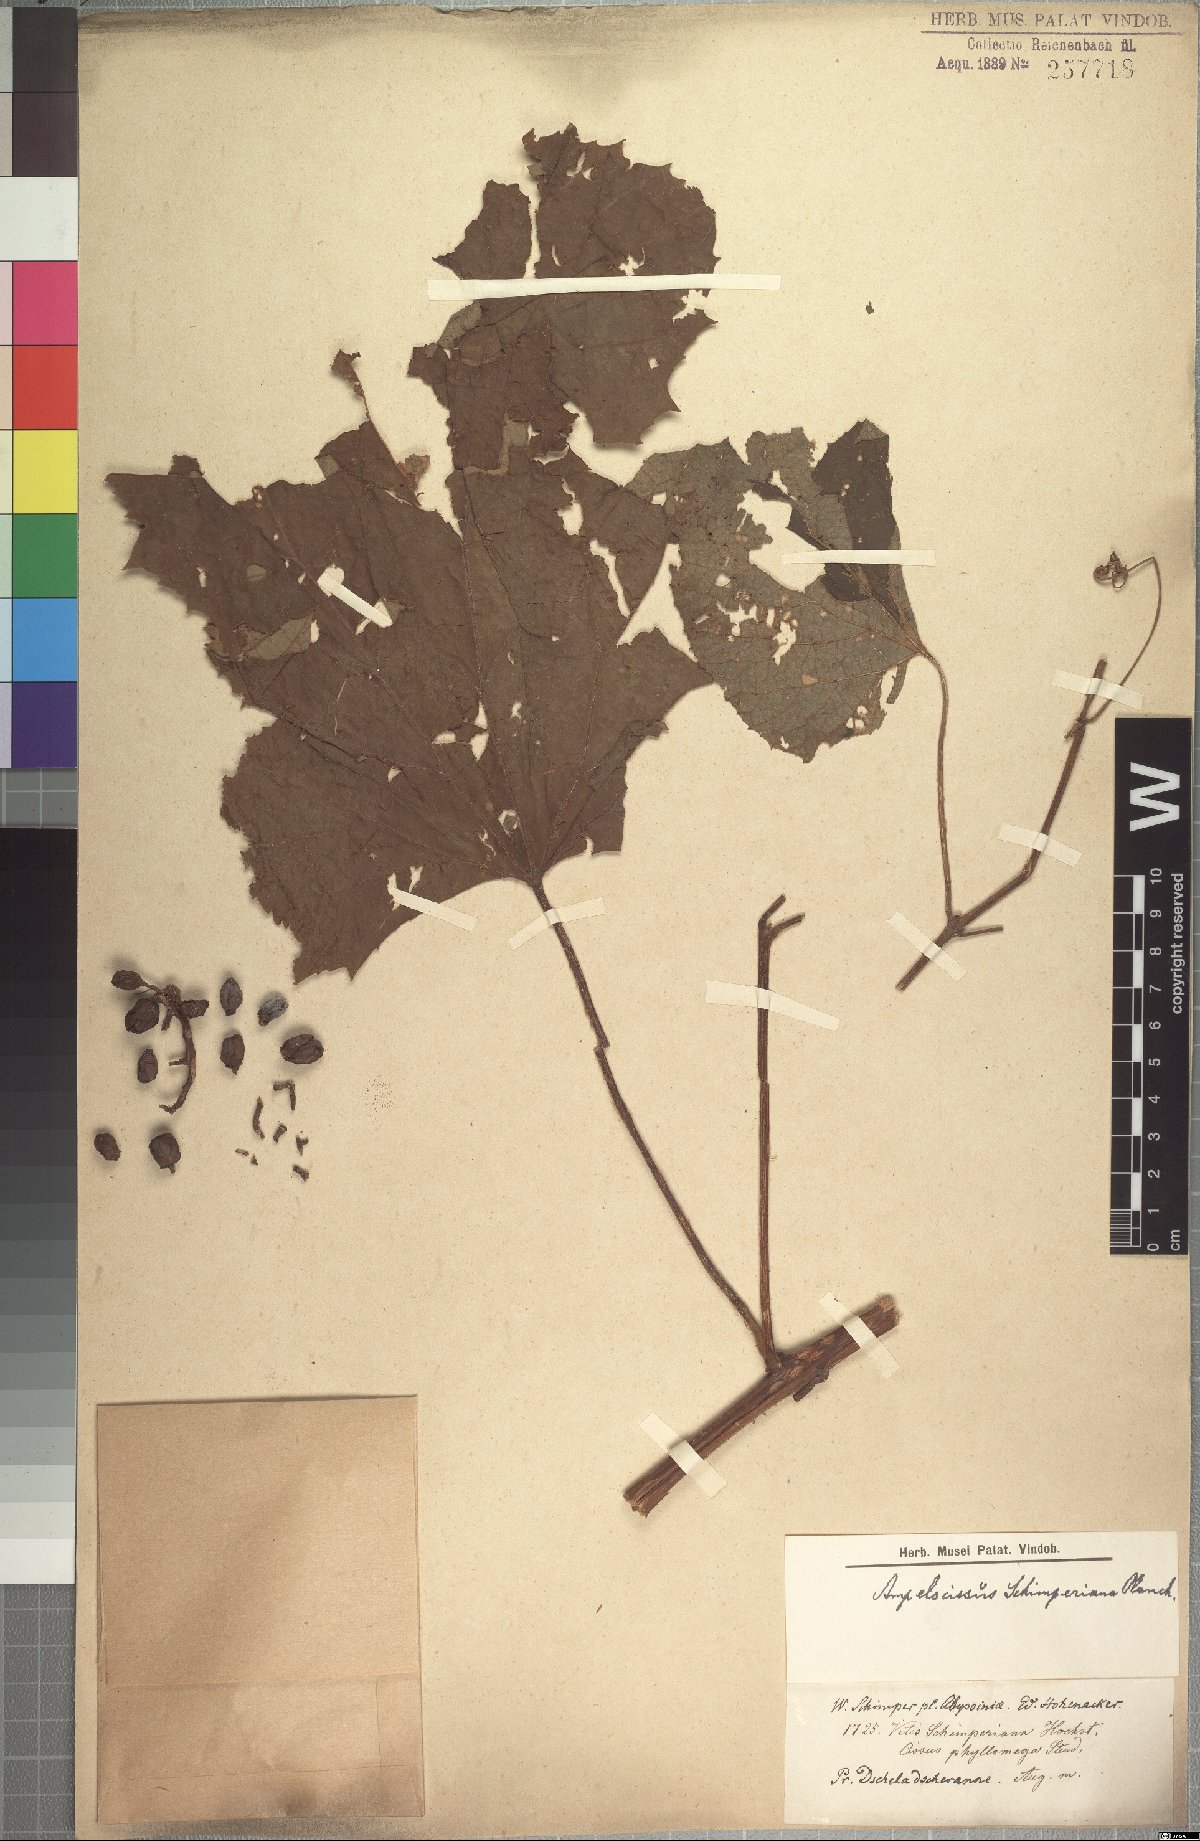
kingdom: Plantae
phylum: Tracheophyta
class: Magnoliopsida
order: Vitales
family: Vitaceae
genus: Ampelocissus
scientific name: Ampelocissus schimperiana
